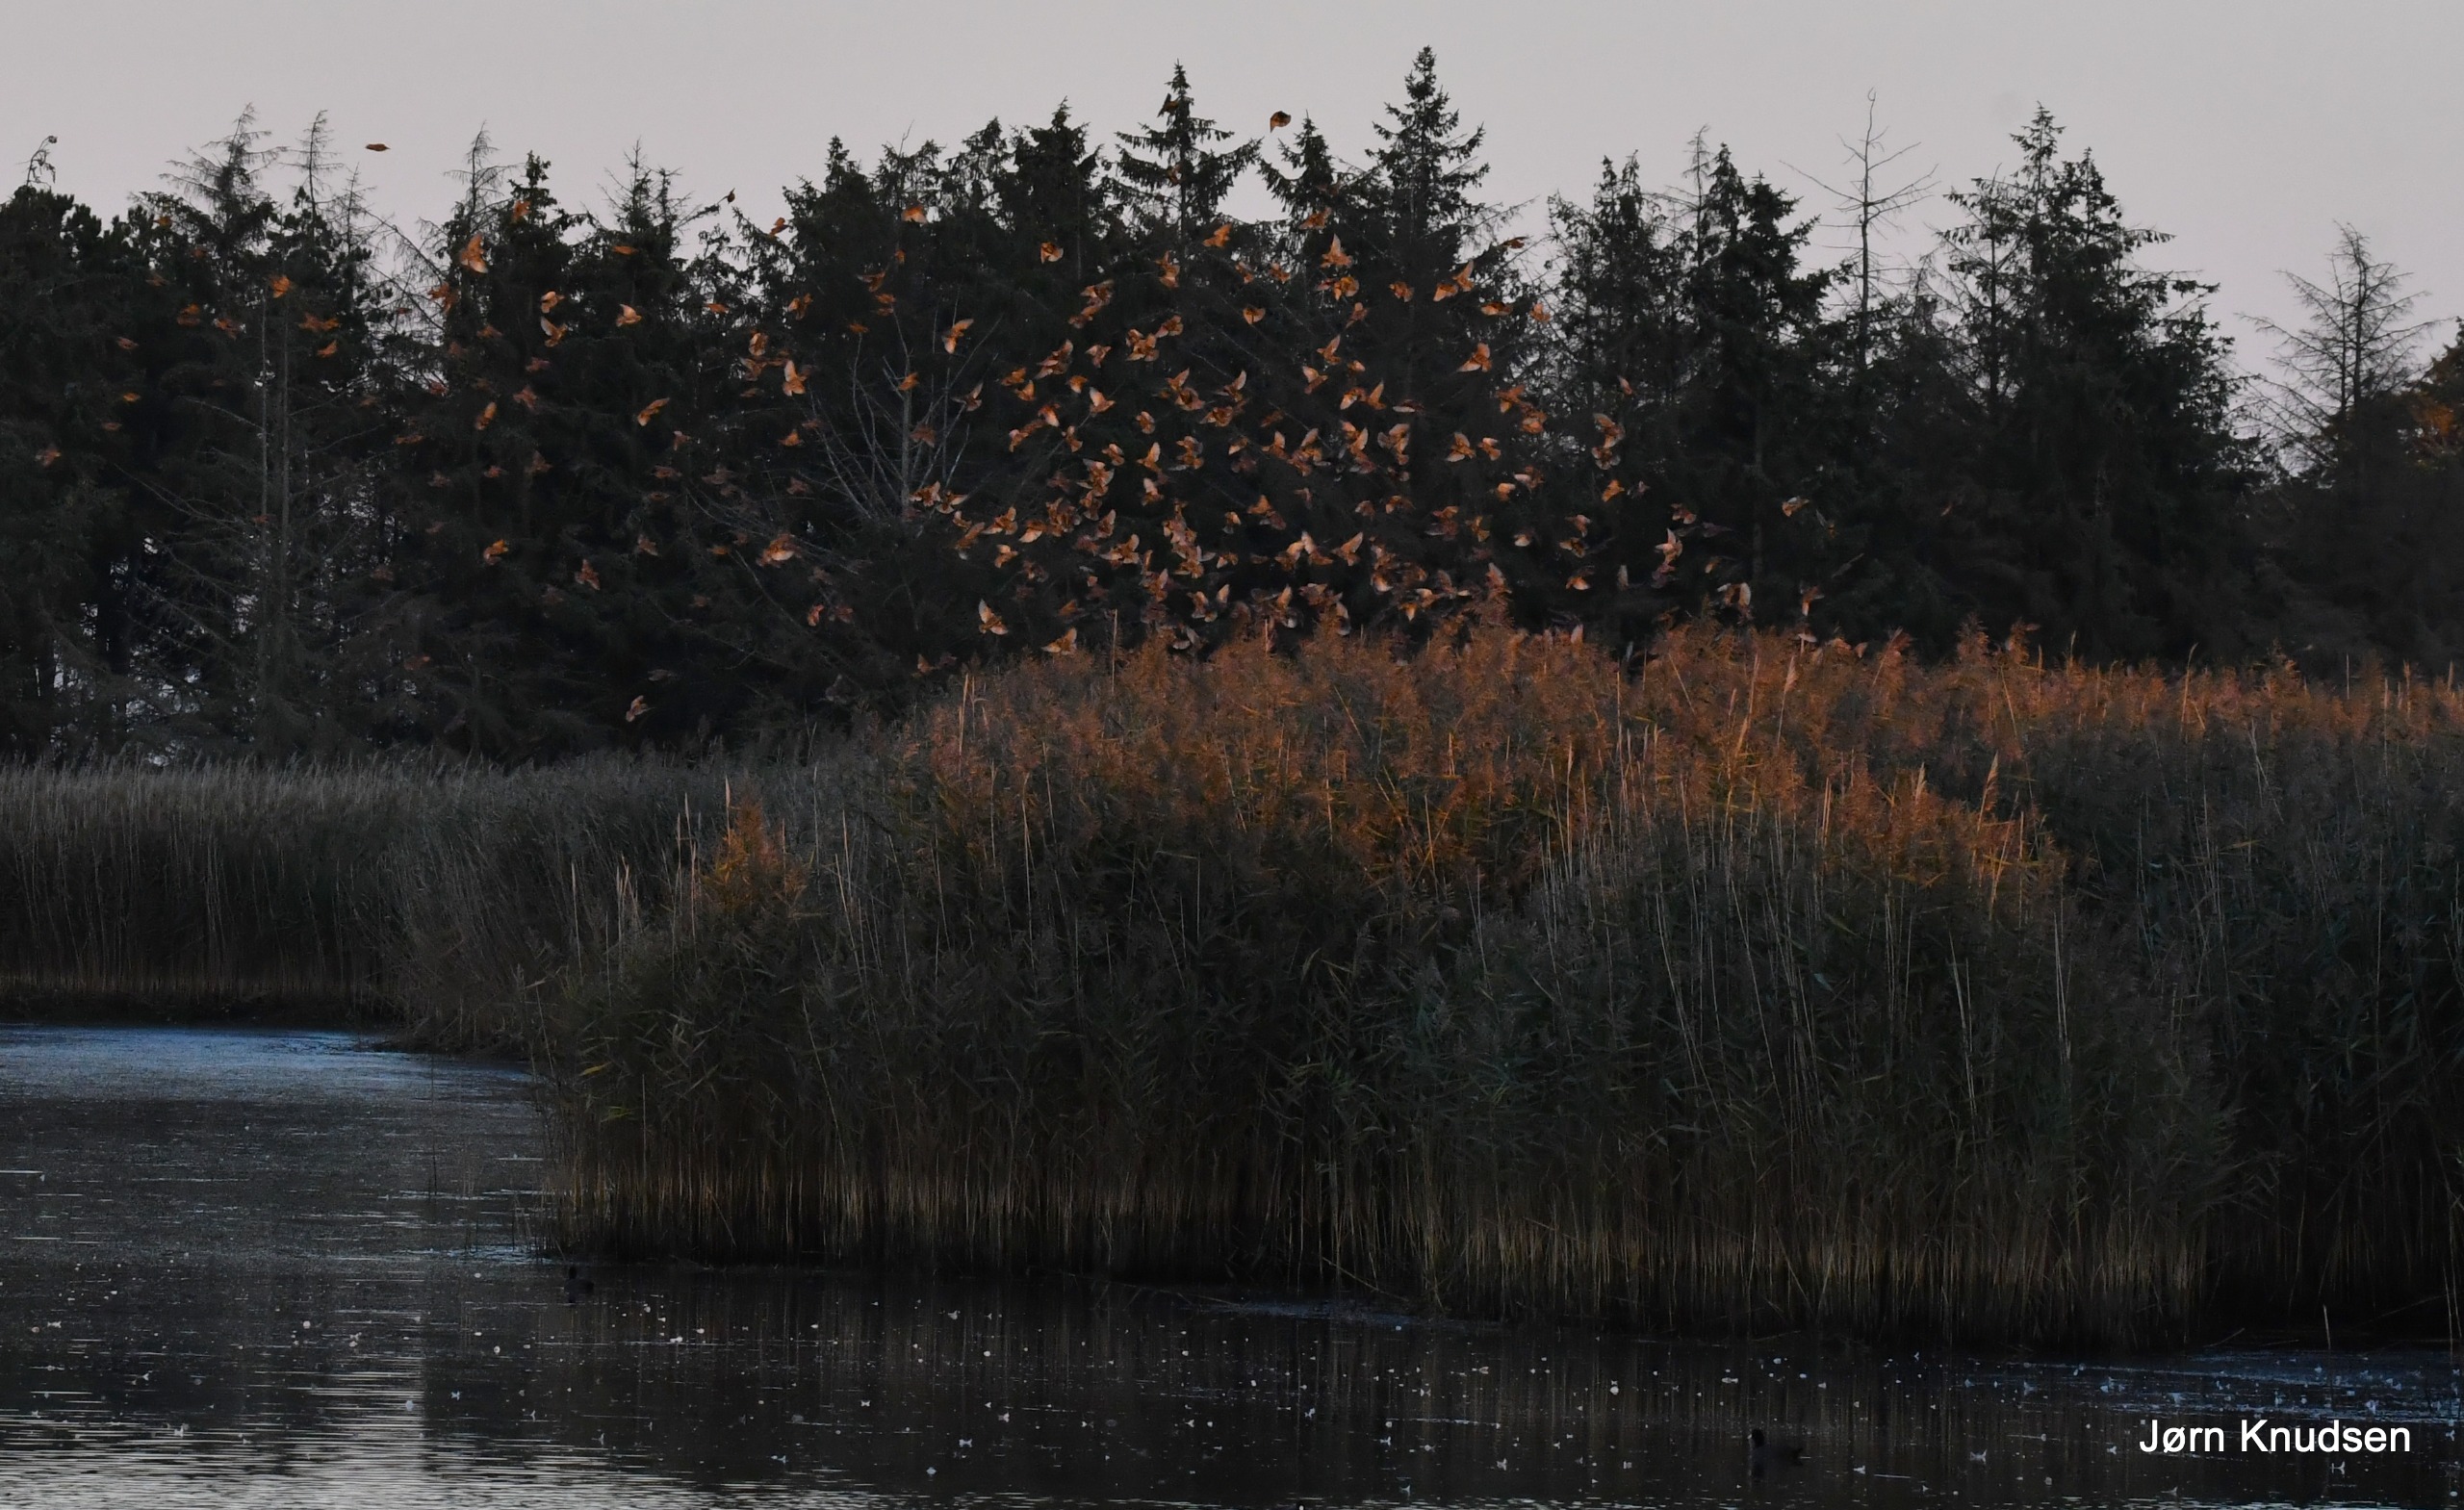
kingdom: Animalia
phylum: Chordata
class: Aves
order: Passeriformes
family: Sturnidae
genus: Sturnus
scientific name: Sturnus vulgaris
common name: Stær
